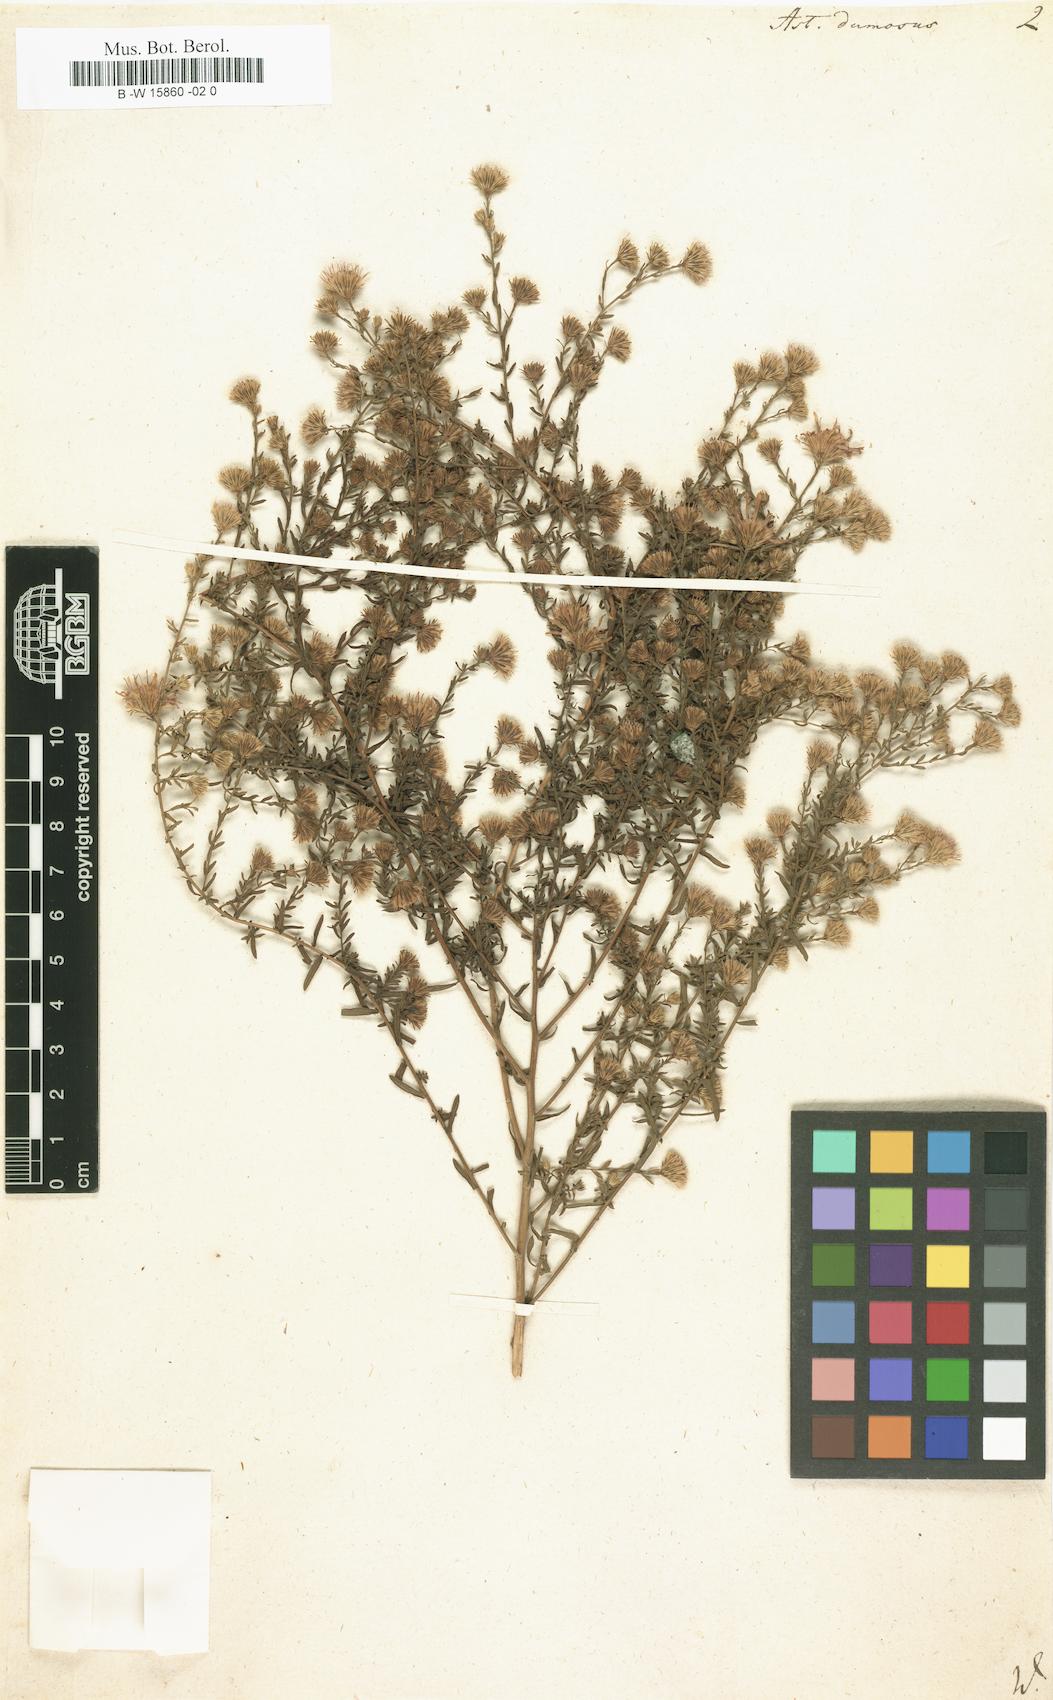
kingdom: Plantae
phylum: Tracheophyta
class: Magnoliopsida
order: Asterales
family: Asteraceae
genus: Symphyotrichum
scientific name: Symphyotrichum dumosum
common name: Bushy aster
